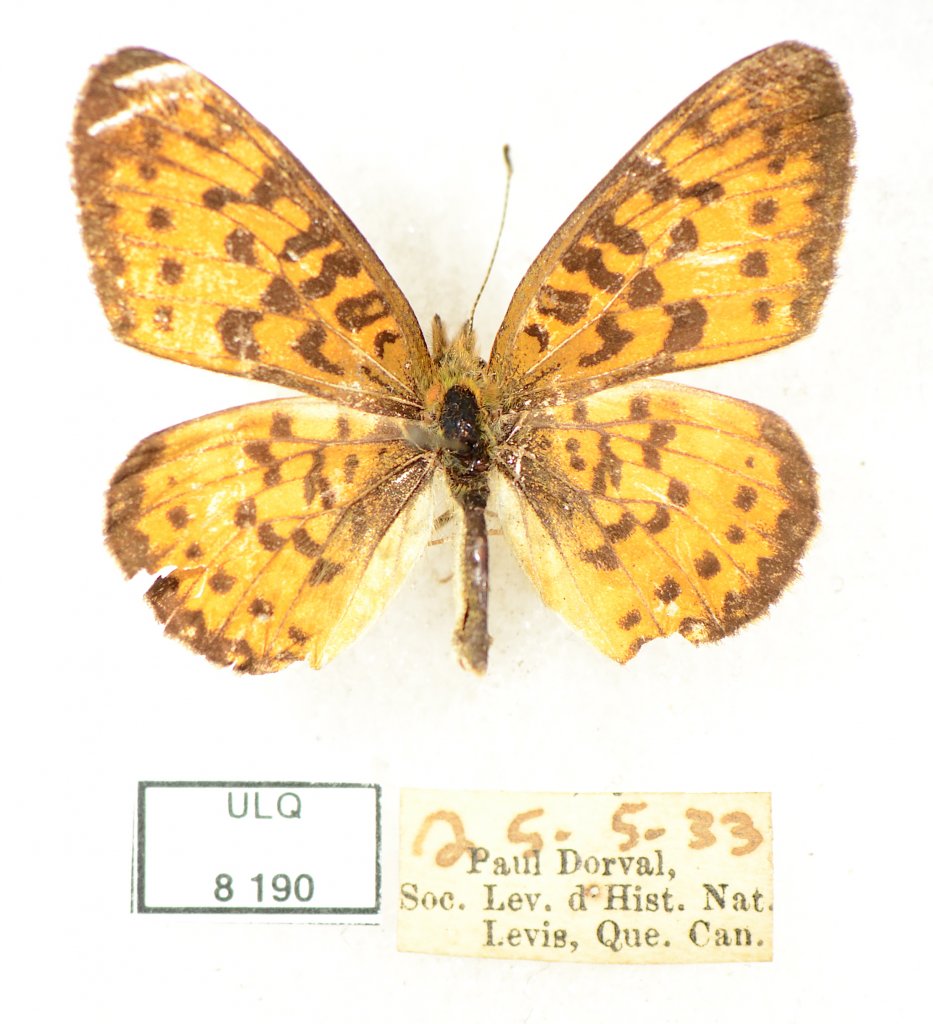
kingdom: Animalia
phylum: Arthropoda
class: Insecta
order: Lepidoptera
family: Nymphalidae
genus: Boloria
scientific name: Boloria selene
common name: Silver-bordered Fritillary
